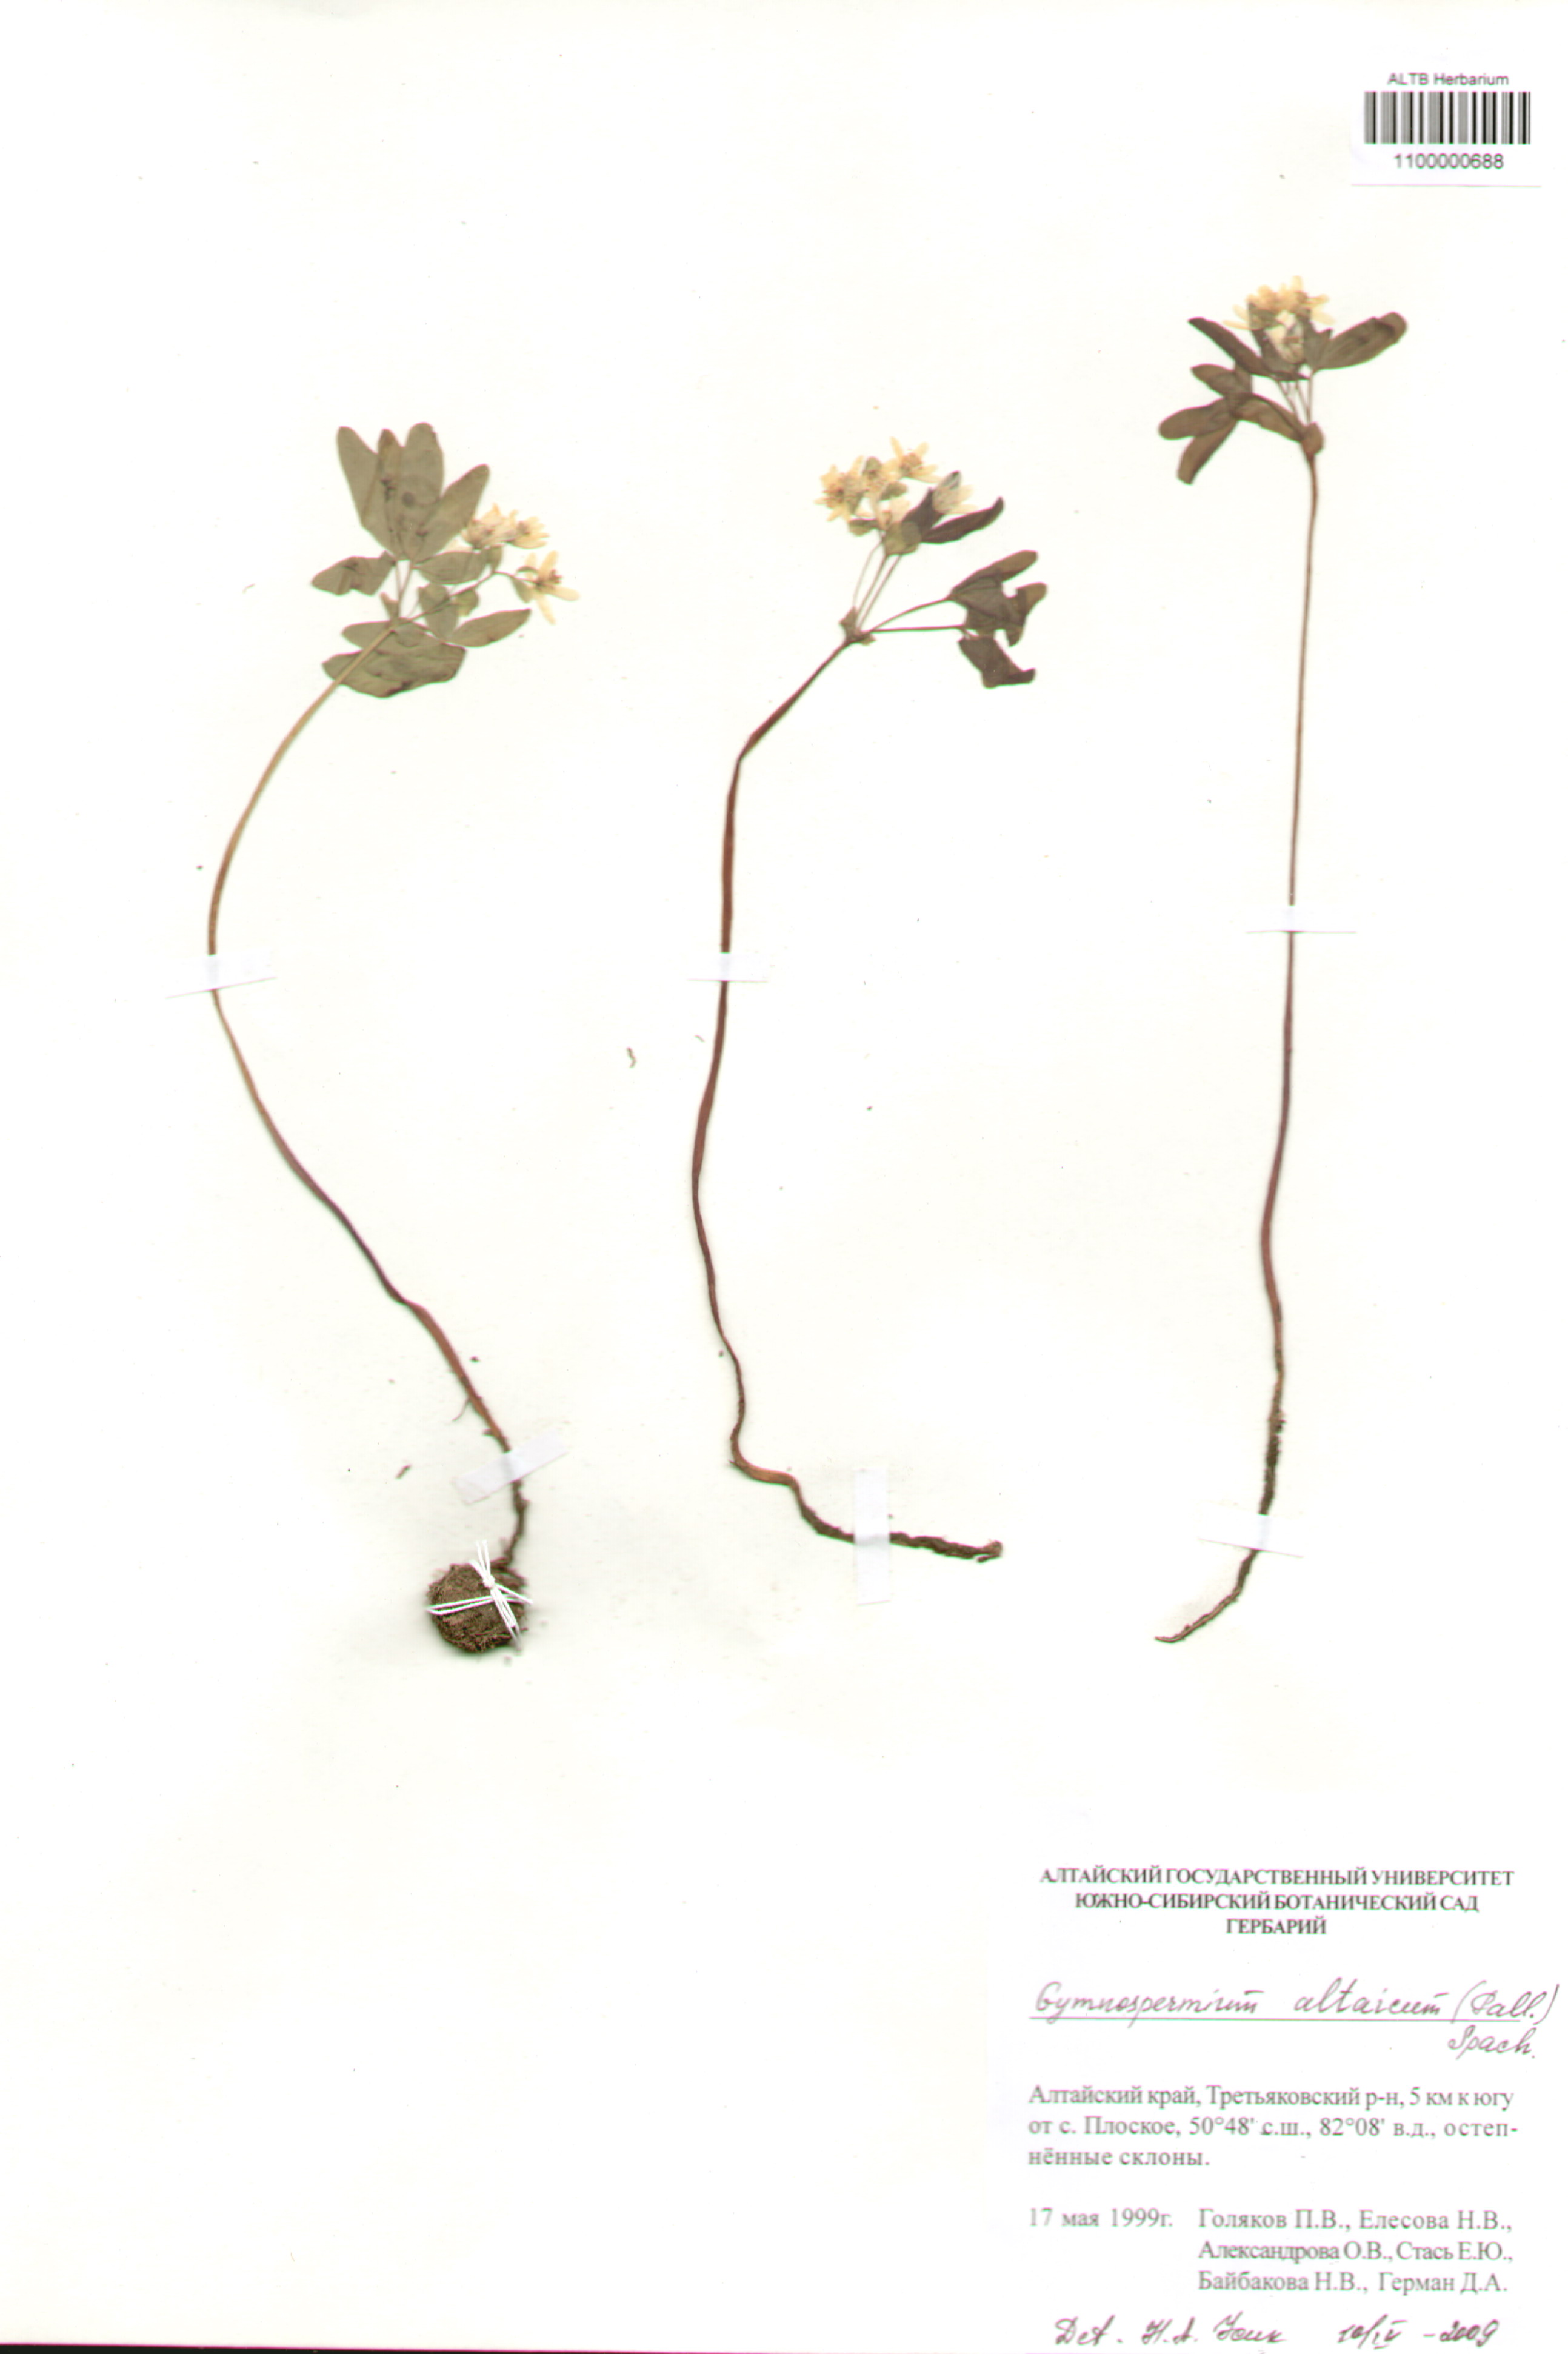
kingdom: Plantae
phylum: Tracheophyta
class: Magnoliopsida
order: Ranunculales
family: Berberidaceae
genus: Gymnospermium
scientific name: Gymnospermium altaicum
